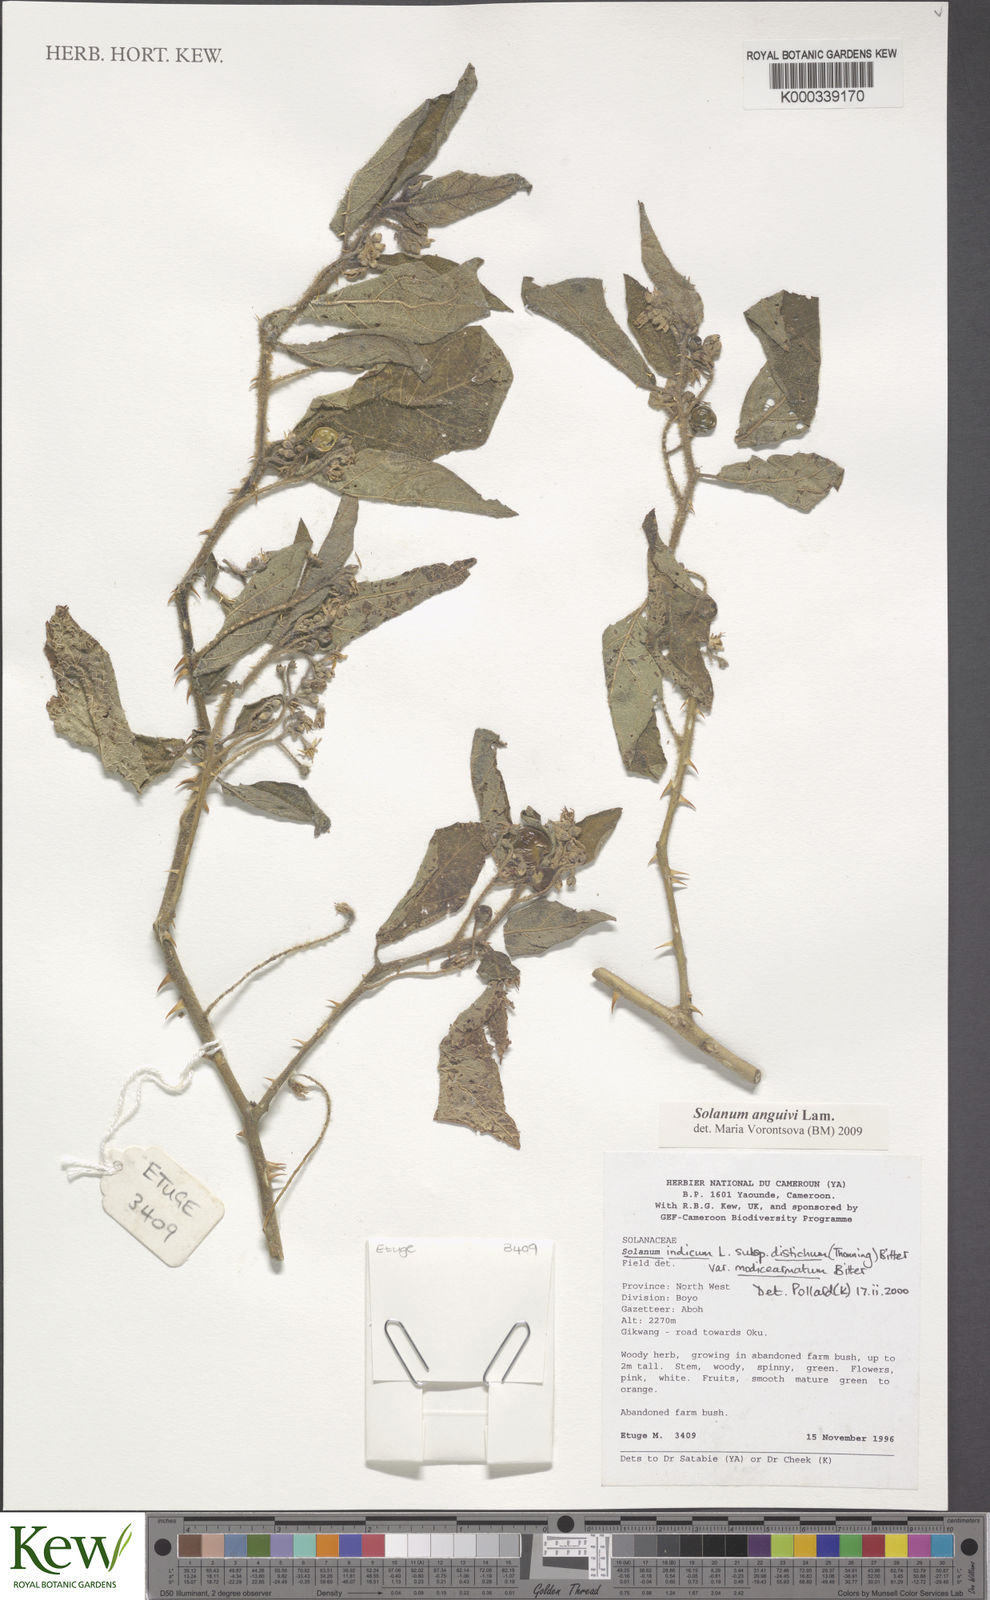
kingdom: Plantae
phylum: Tracheophyta
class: Magnoliopsida
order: Solanales
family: Solanaceae
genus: Solanum
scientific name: Solanum violaceum
